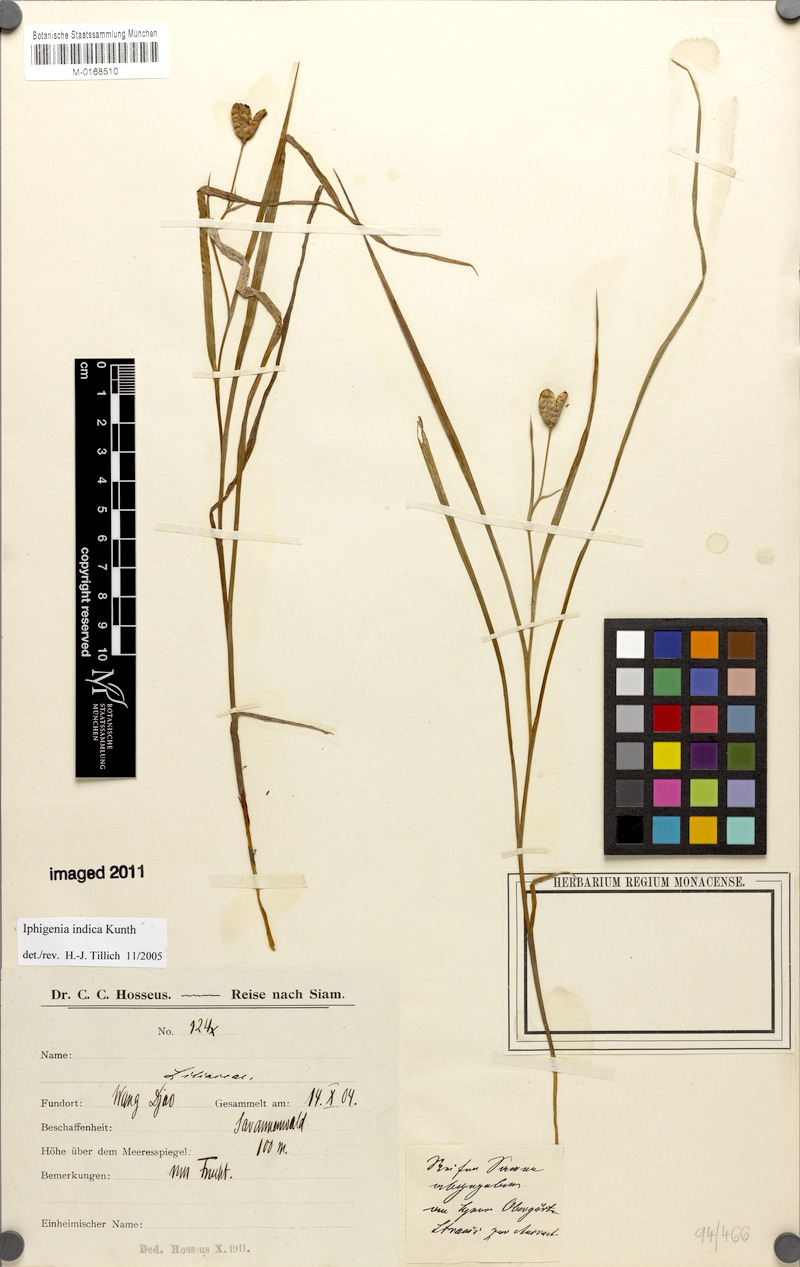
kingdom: Plantae
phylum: Tracheophyta
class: Liliopsida
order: Liliales
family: Colchicaceae
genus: Iphigenia
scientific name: Iphigenia indica
